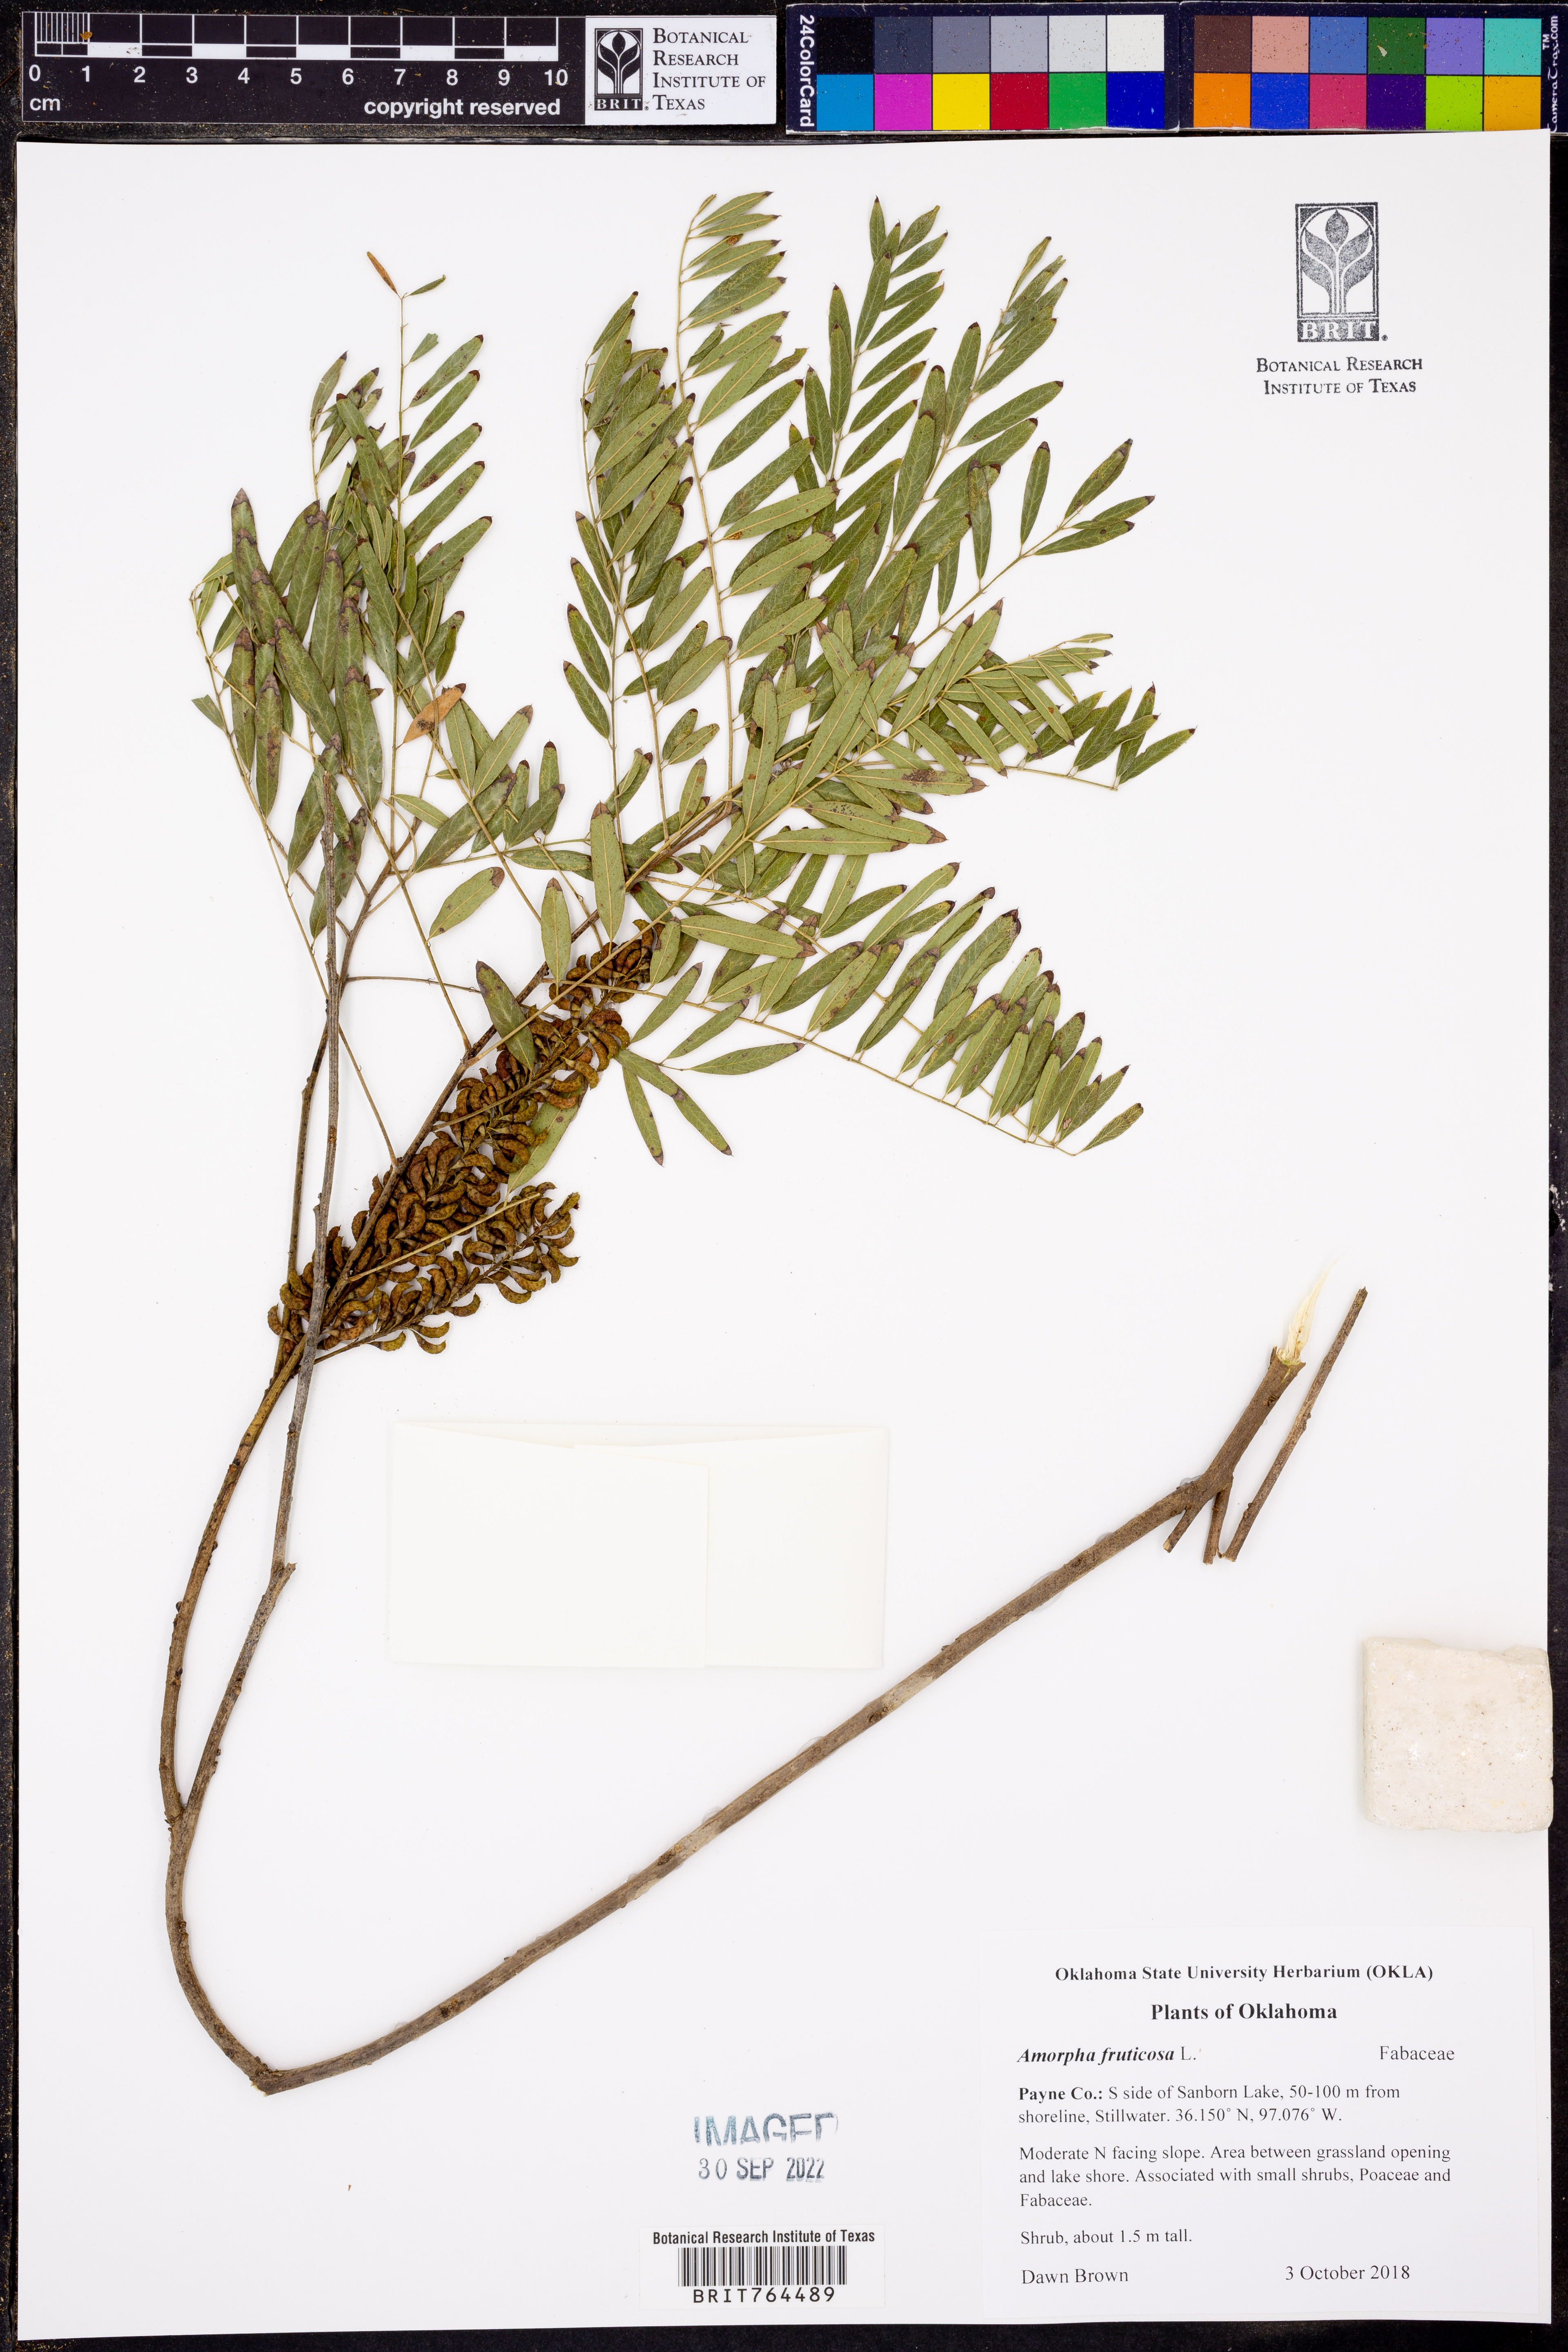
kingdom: Plantae
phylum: Tracheophyta
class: Magnoliopsida
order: Fabales
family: Fabaceae
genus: Amorpha
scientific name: Amorpha fruticosa
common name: False indigo
